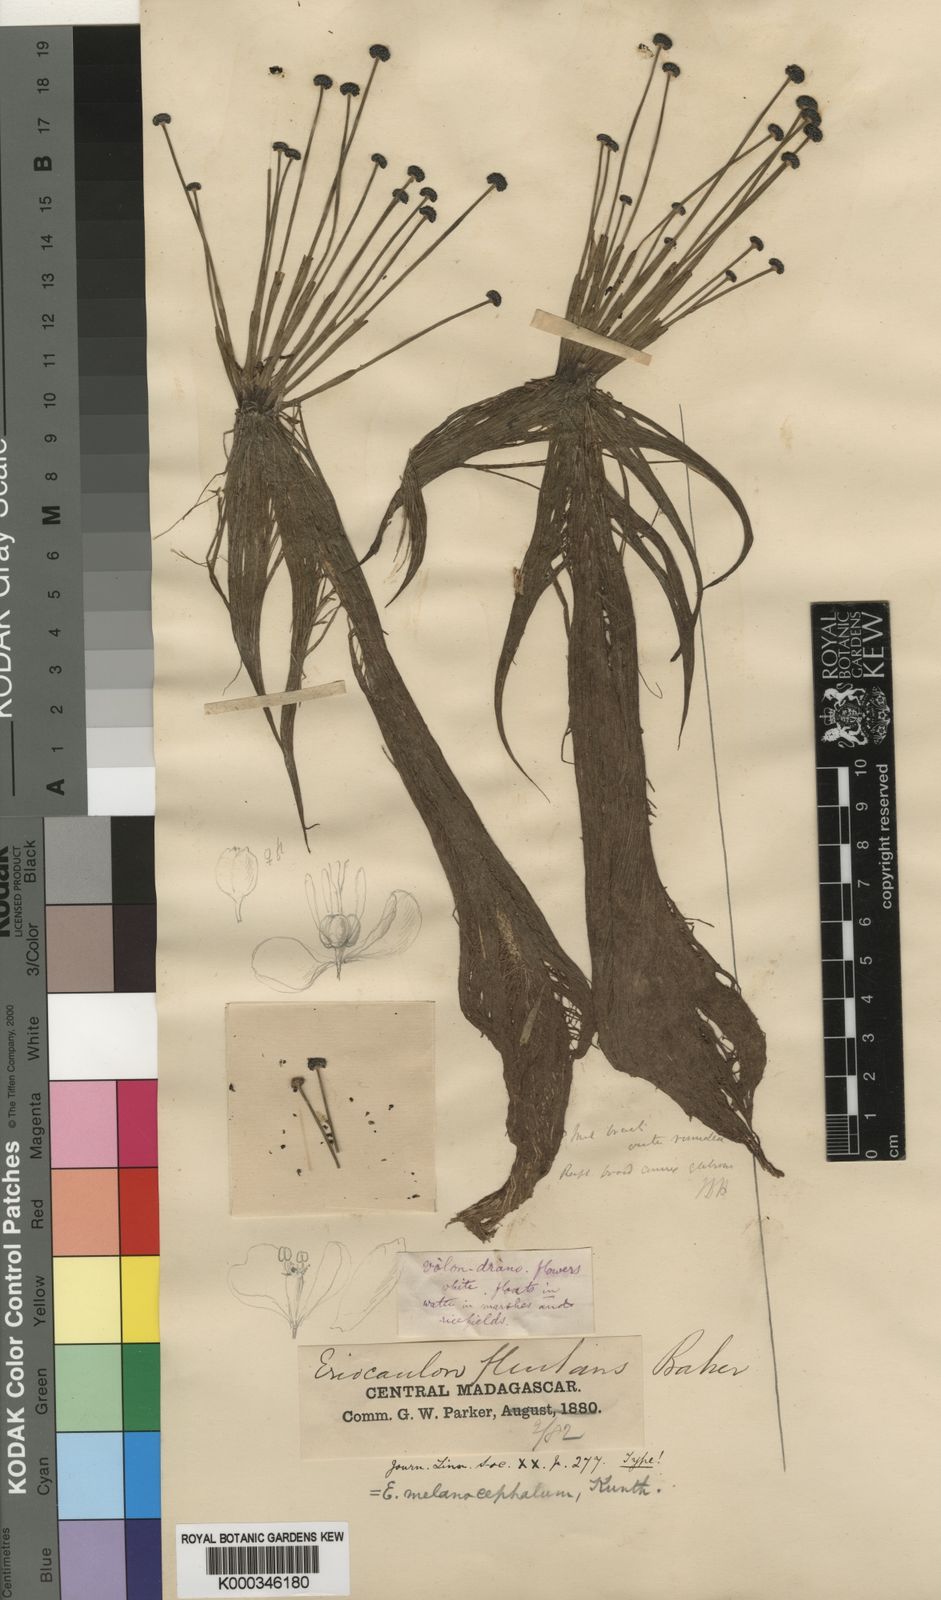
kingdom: Plantae
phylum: Tracheophyta
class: Liliopsida
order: Poales
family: Eriocaulaceae
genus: Eriocaulon
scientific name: Eriocaulon setaceum
